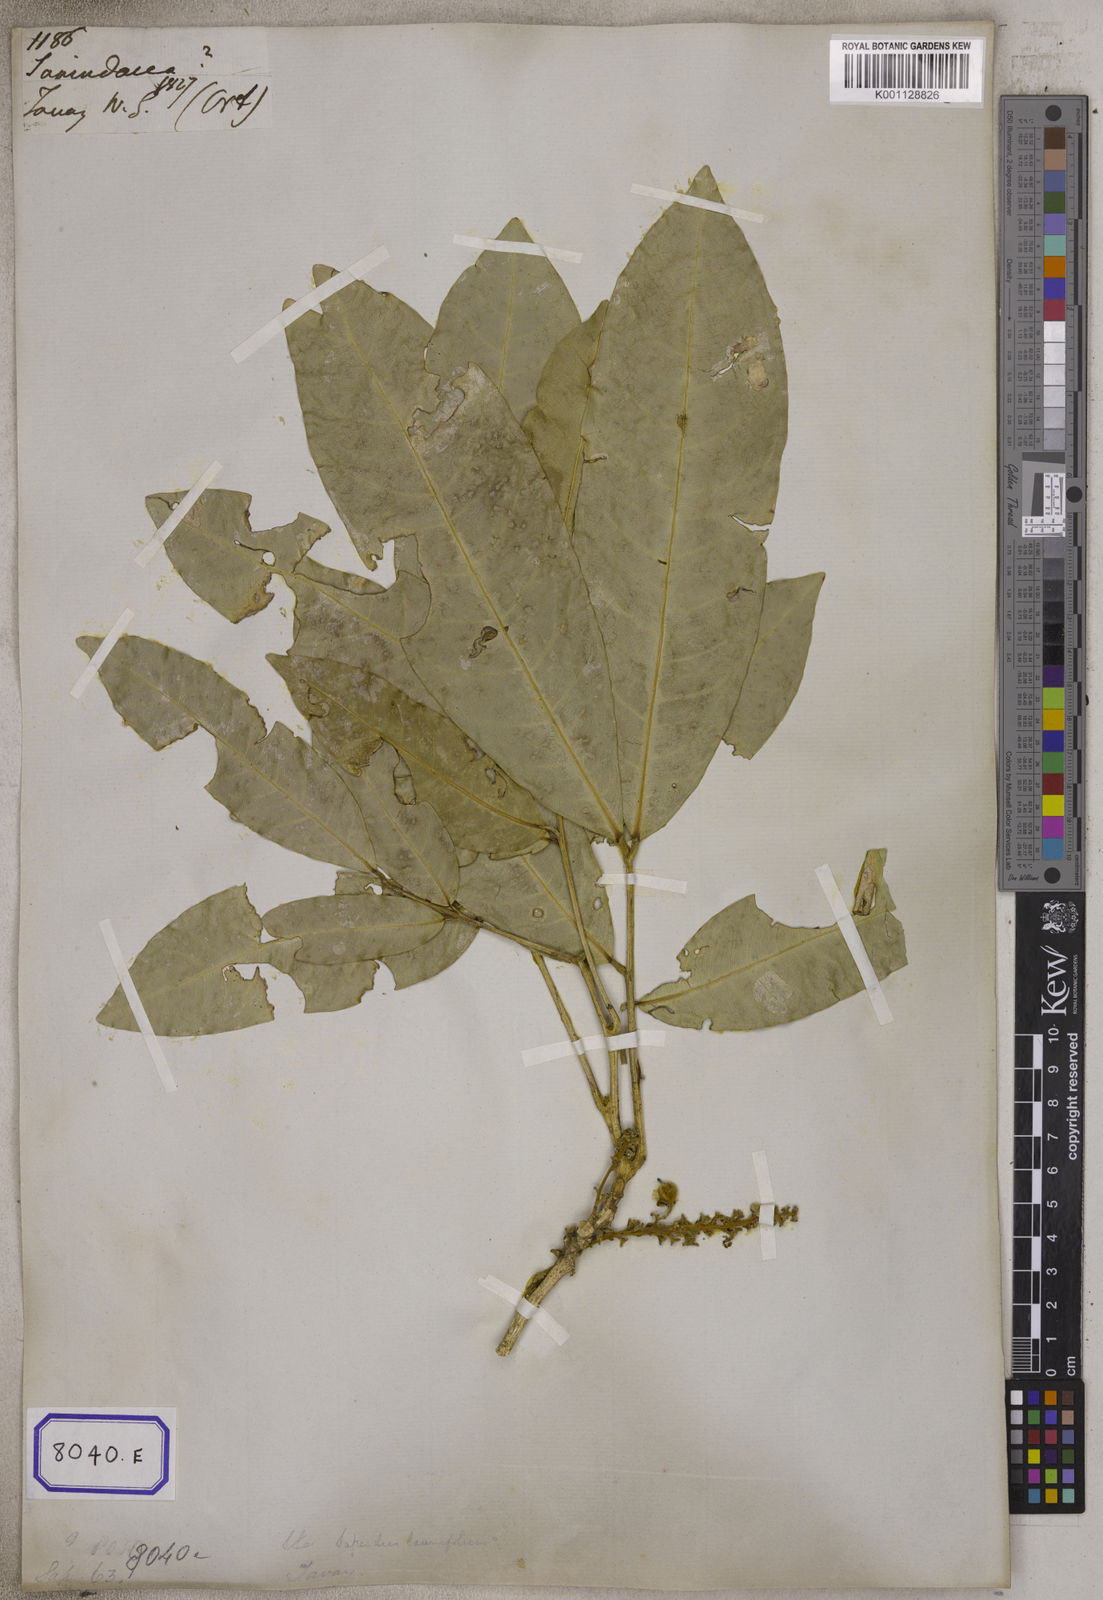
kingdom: Plantae
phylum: Tracheophyta
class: Magnoliopsida
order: Sapindales
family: Sapindaceae
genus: Lepisanthes
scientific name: Lepisanthes tetraphylla
